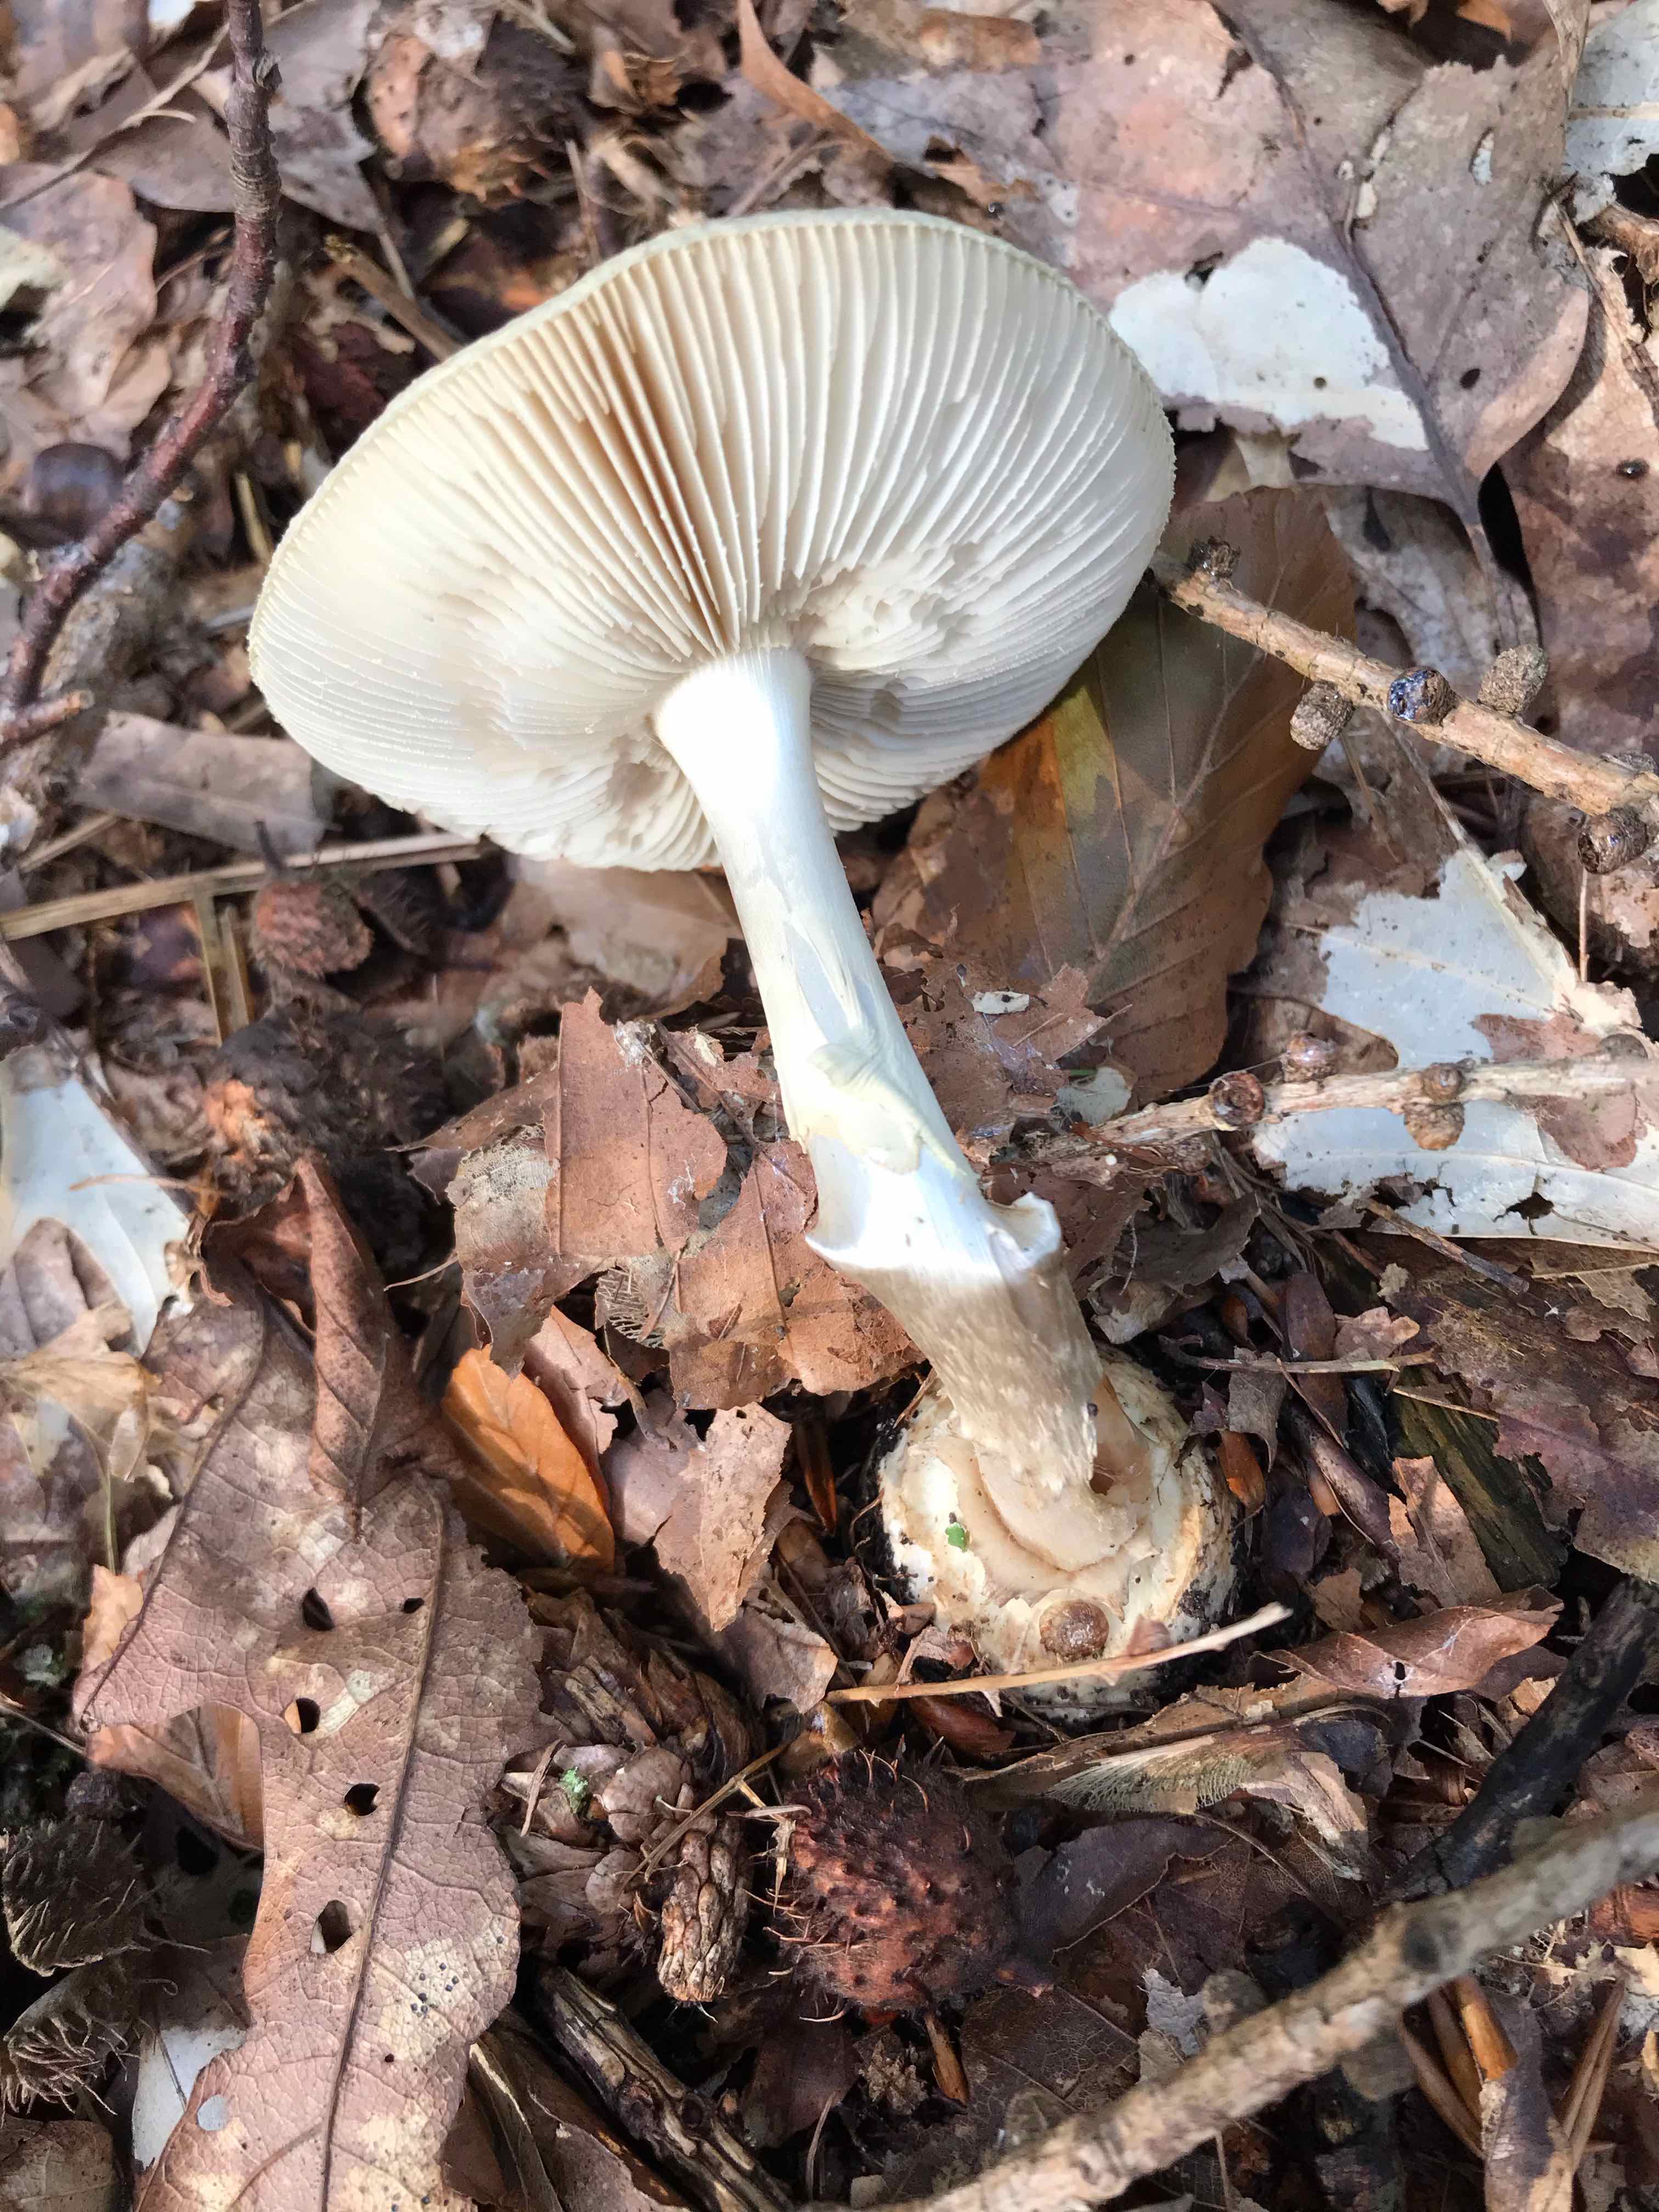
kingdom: Fungi
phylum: Basidiomycota
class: Agaricomycetes
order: Agaricales
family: Amanitaceae
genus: Amanita
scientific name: Amanita citrina
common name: False death-cap
